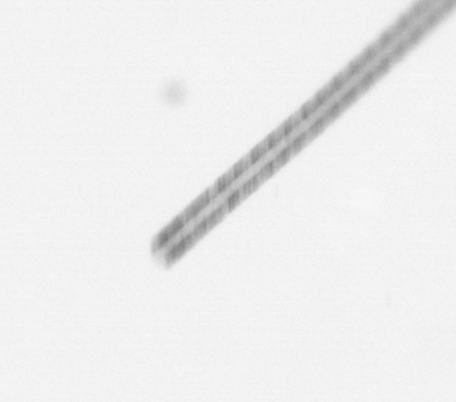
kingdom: Chromista
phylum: Ochrophyta
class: Bacillariophyceae
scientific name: Bacillariophyceae
